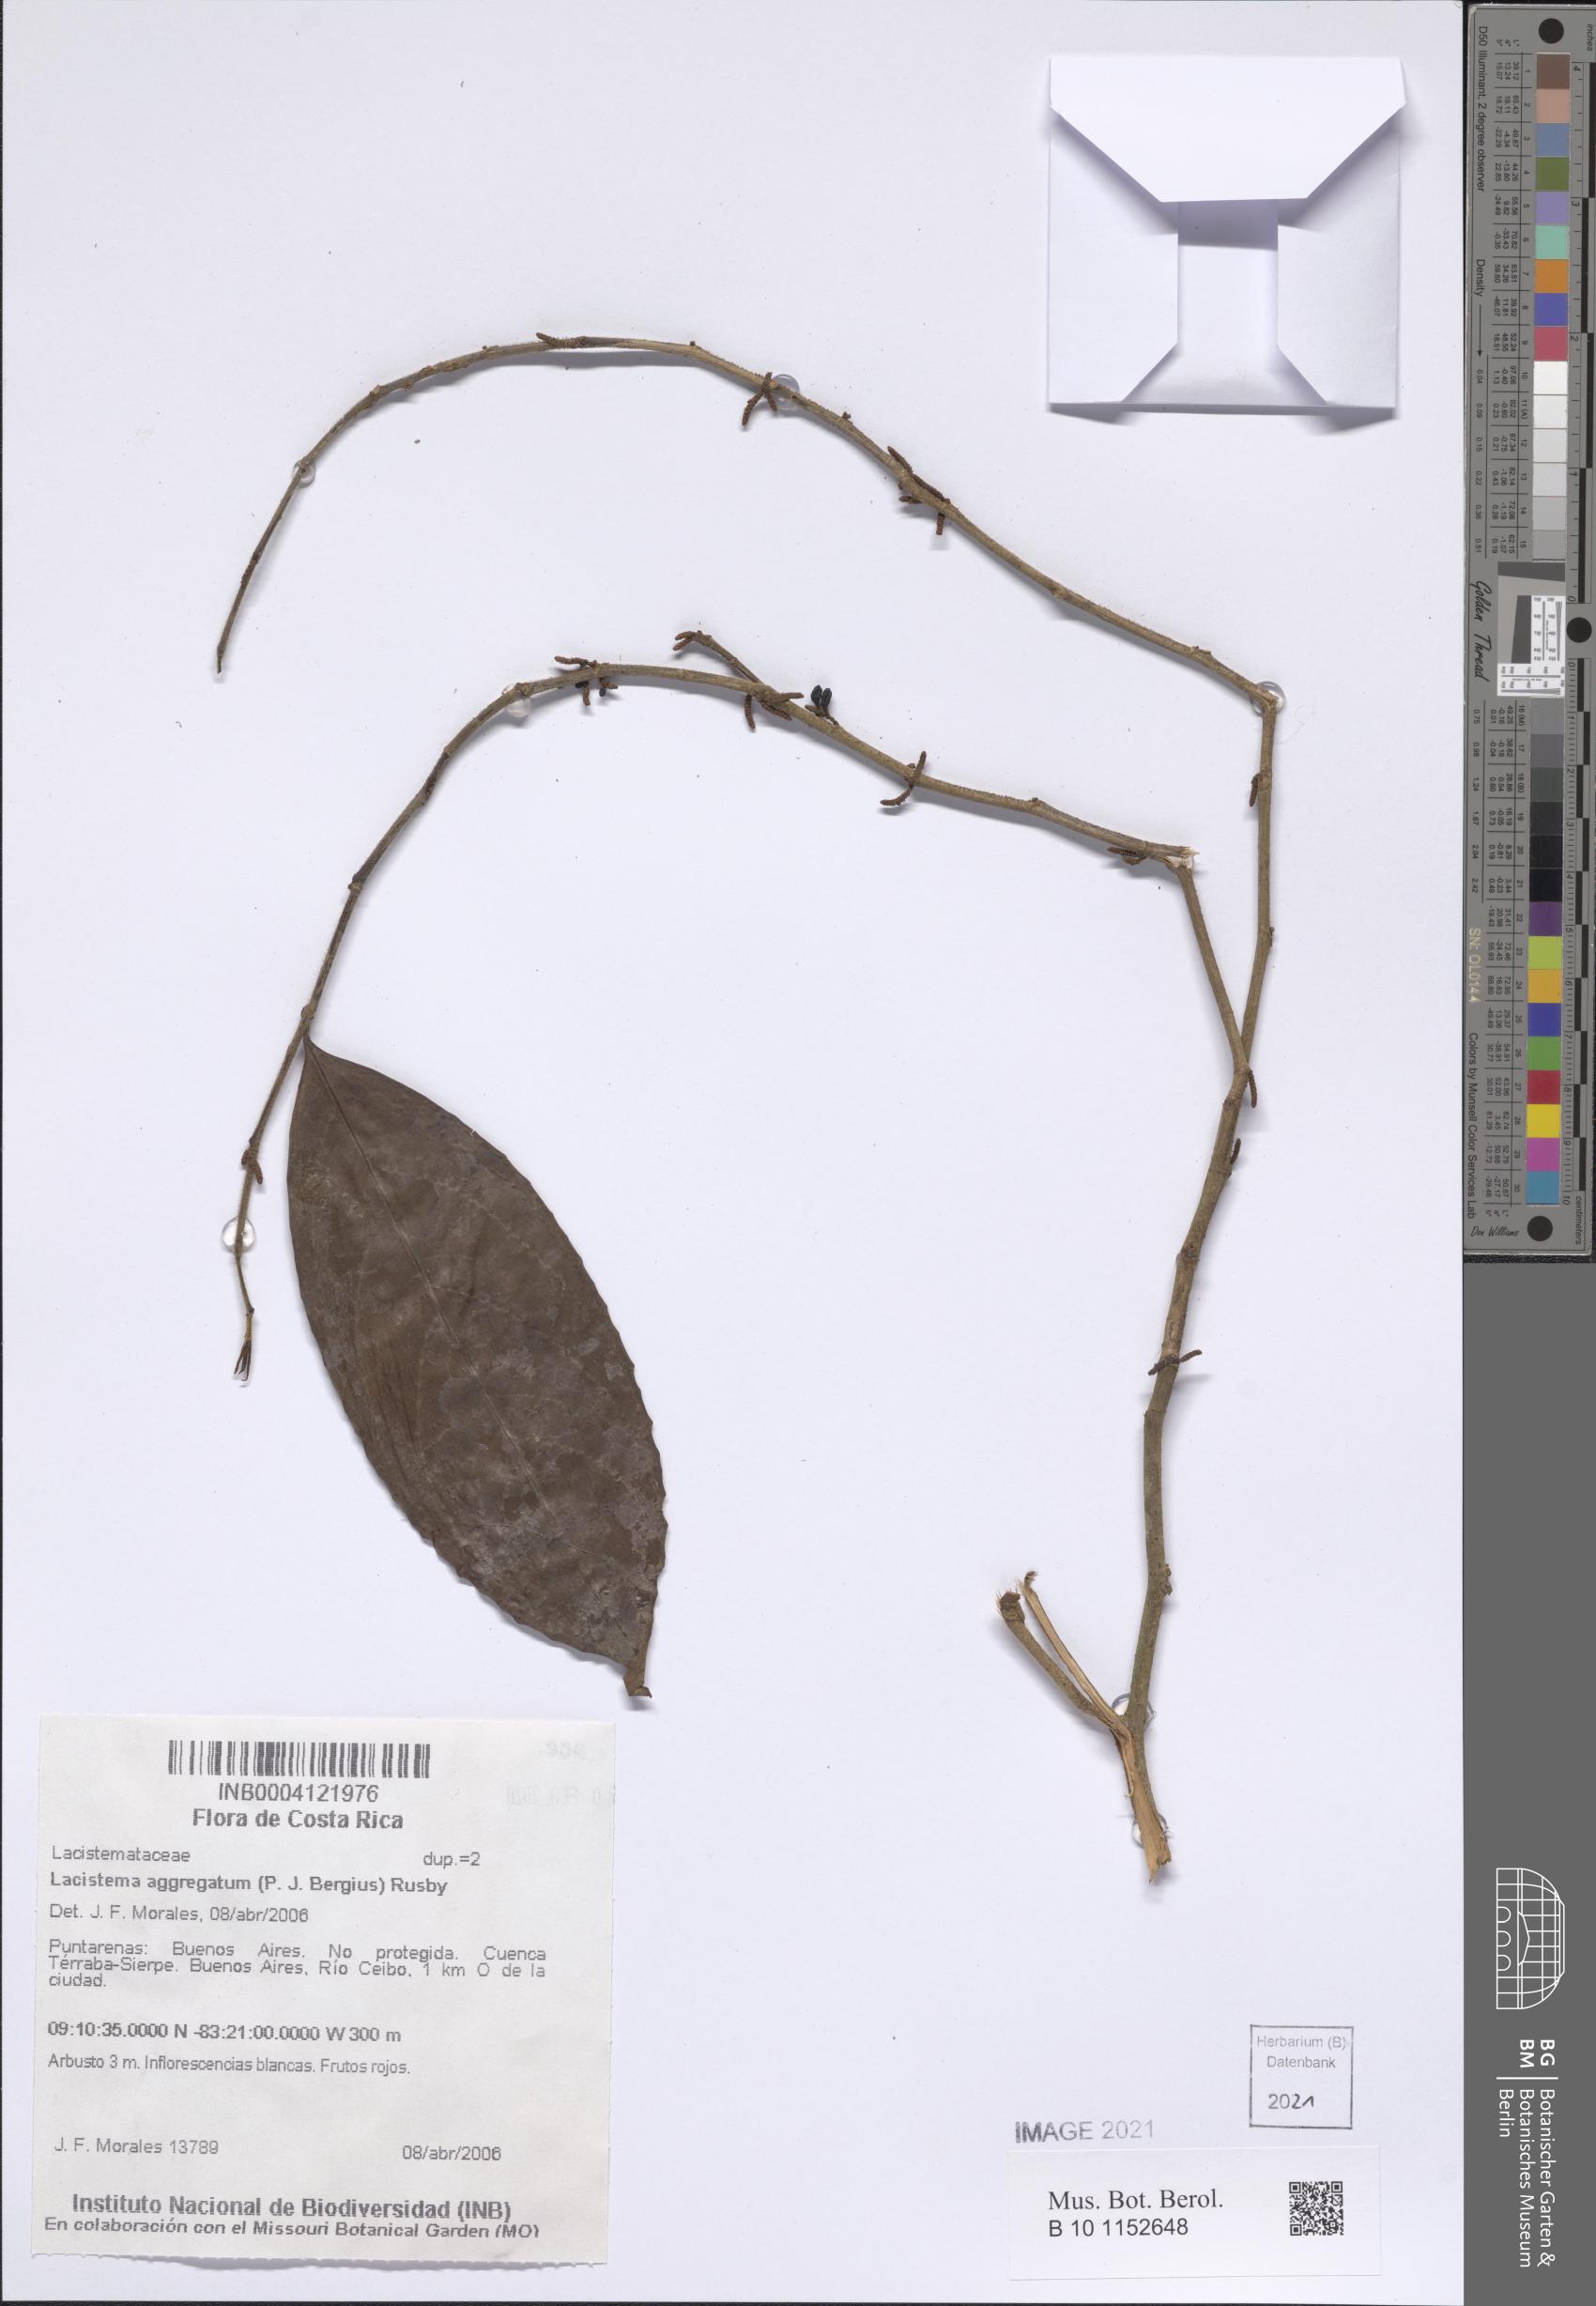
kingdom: Plantae
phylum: Tracheophyta
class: Magnoliopsida
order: Malpighiales
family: Lacistemataceae
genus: Lacistema
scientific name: Lacistema aggregatum
